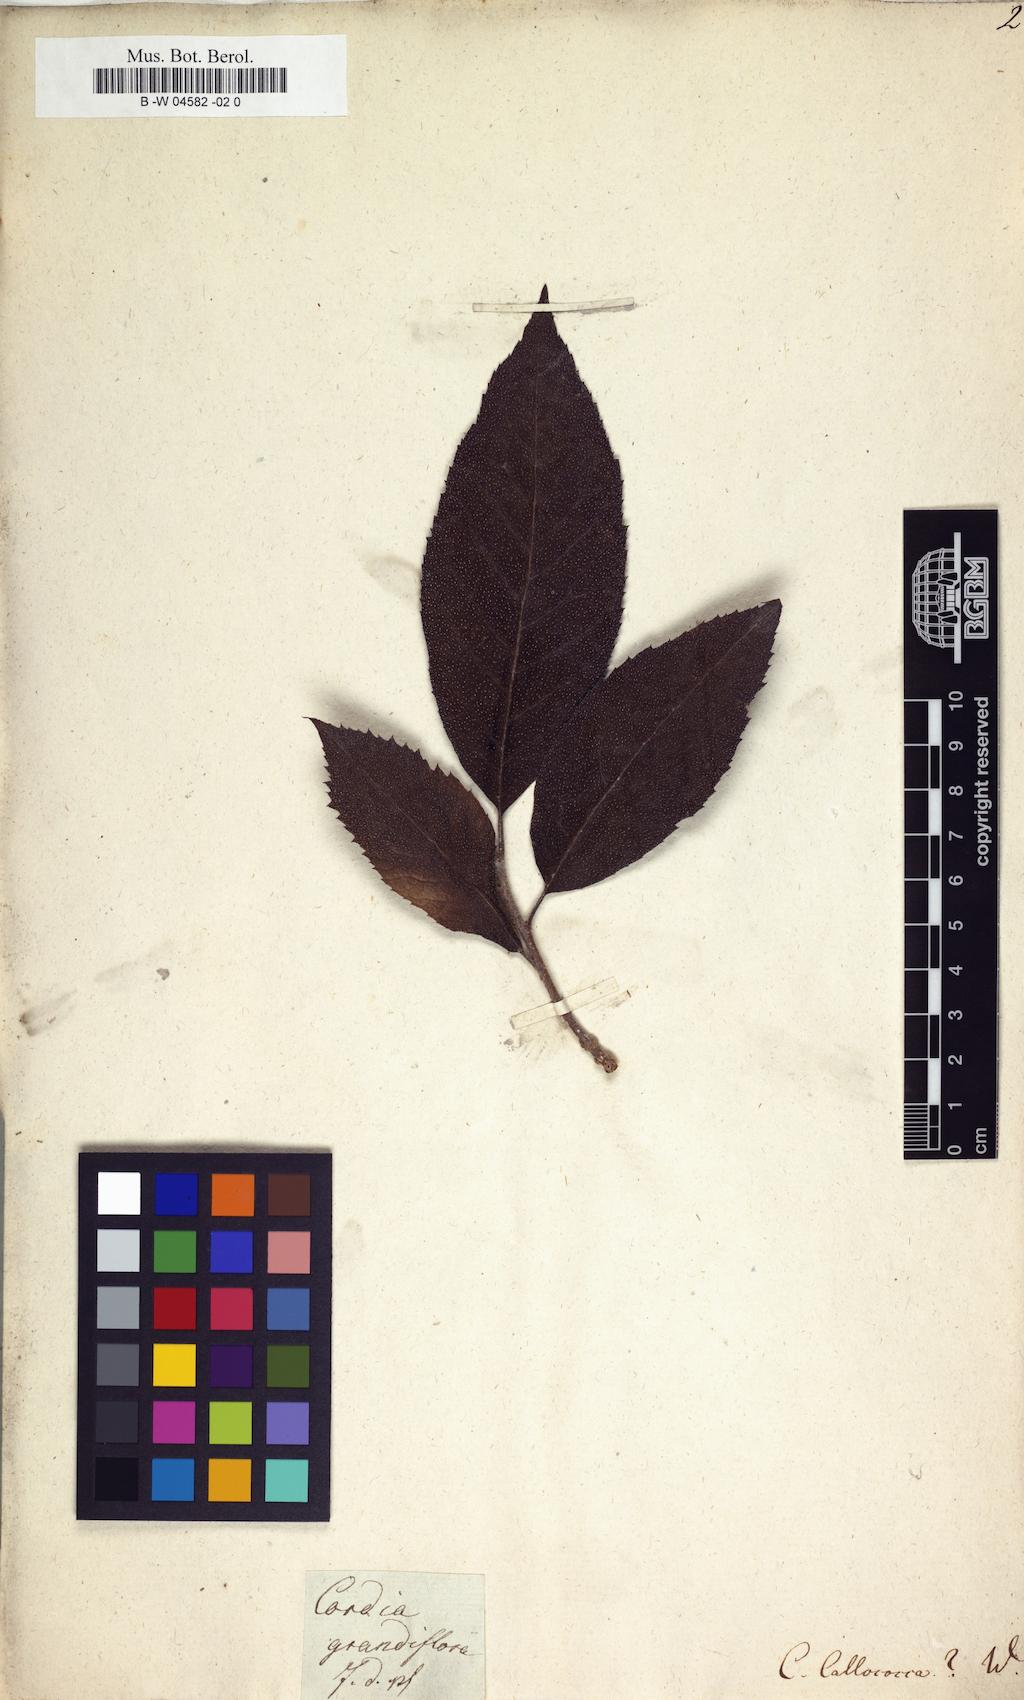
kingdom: Plantae
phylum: Tracheophyta
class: Magnoliopsida
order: Boraginales
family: Cordiaceae
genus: Cordia
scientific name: Cordia callococca
